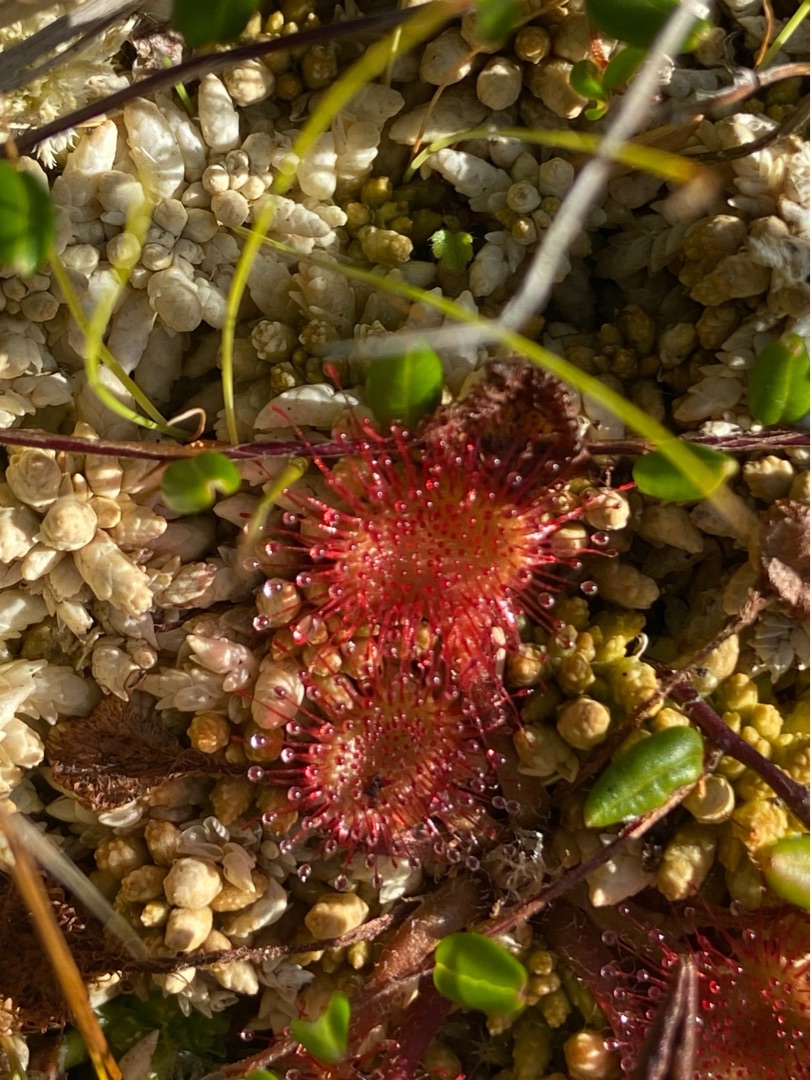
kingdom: Plantae
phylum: Tracheophyta
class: Magnoliopsida
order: Caryophyllales
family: Droseraceae
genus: Drosera
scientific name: Drosera rotundifolia
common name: Rundbladet soldug
